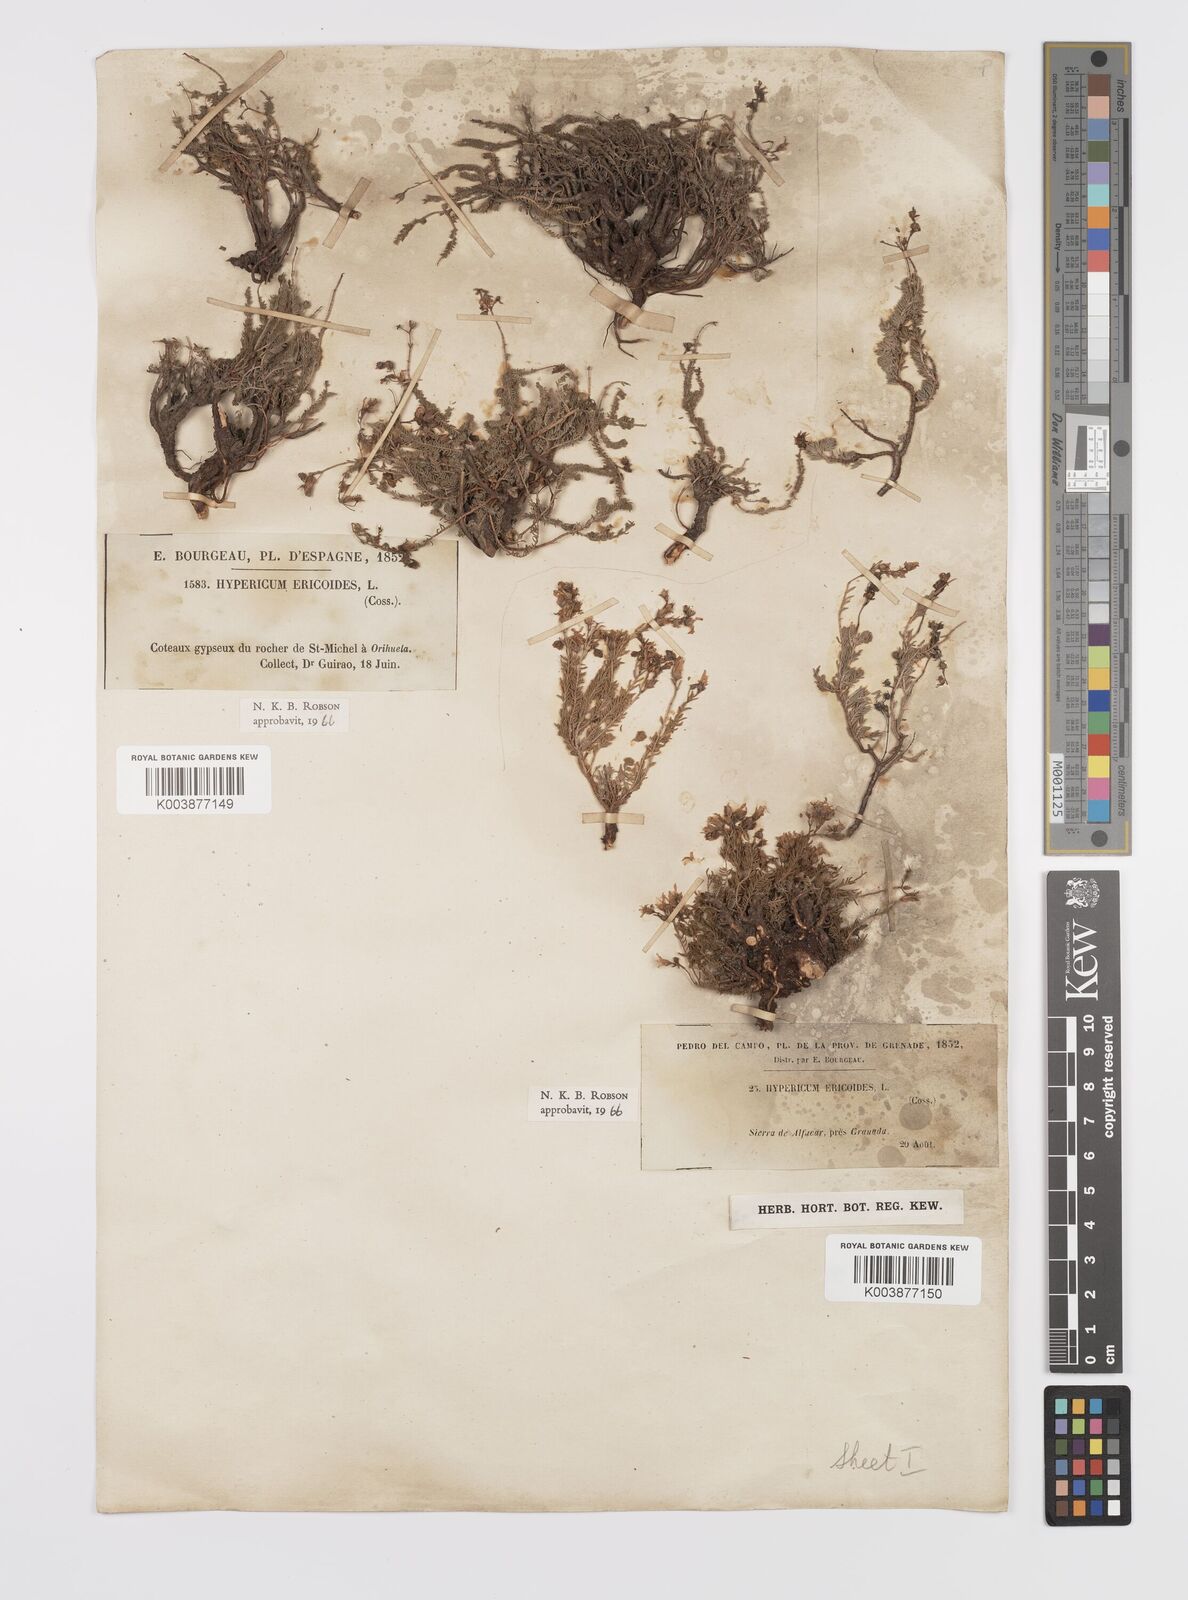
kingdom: Plantae
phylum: Tracheophyta
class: Magnoliopsida
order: Malpighiales
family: Hypericaceae
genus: Hypericum
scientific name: Hypericum ericoides
